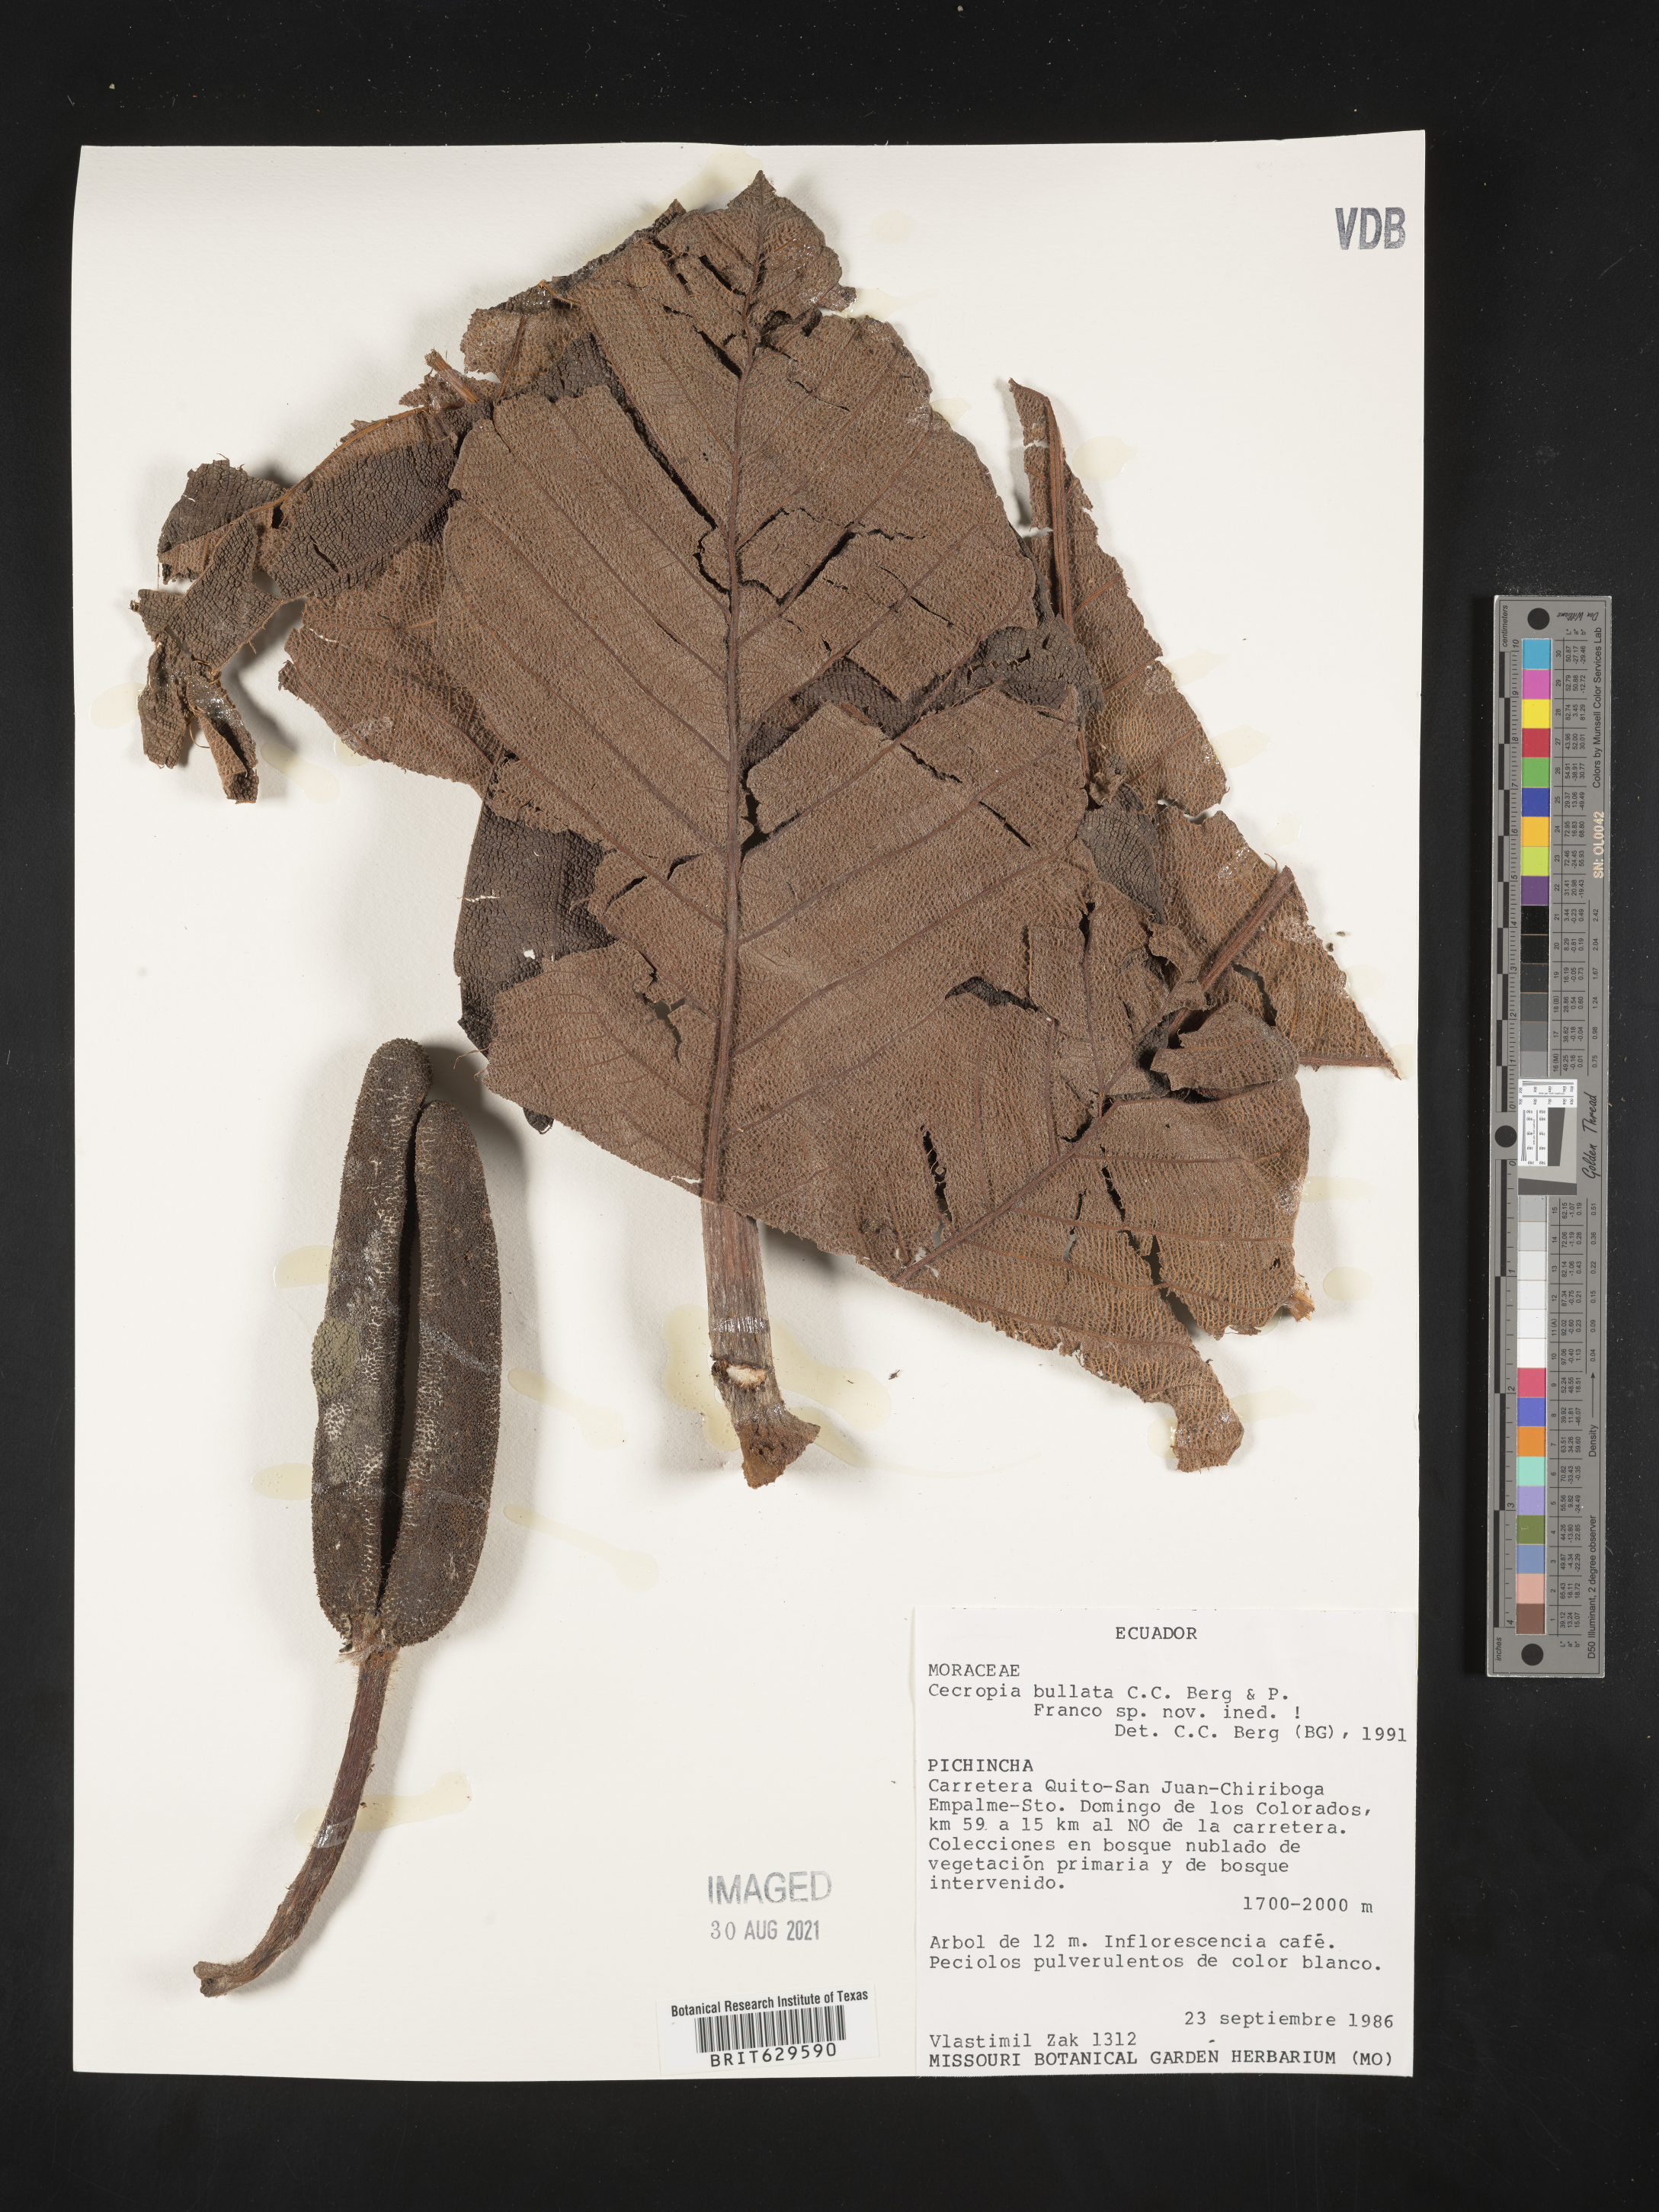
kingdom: Plantae
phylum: Tracheophyta
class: Magnoliopsida
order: Rosales
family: Urticaceae
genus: Cecropia
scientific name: Cecropia
